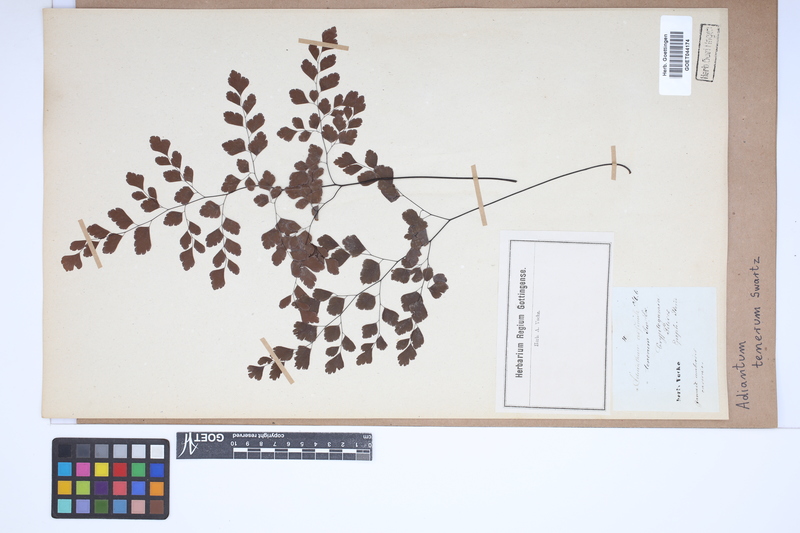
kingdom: Plantae
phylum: Tracheophyta
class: Polypodiopsida
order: Polypodiales
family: Pteridaceae
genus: Adiantum
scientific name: Adiantum tenerum
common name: Fan maidenhair
